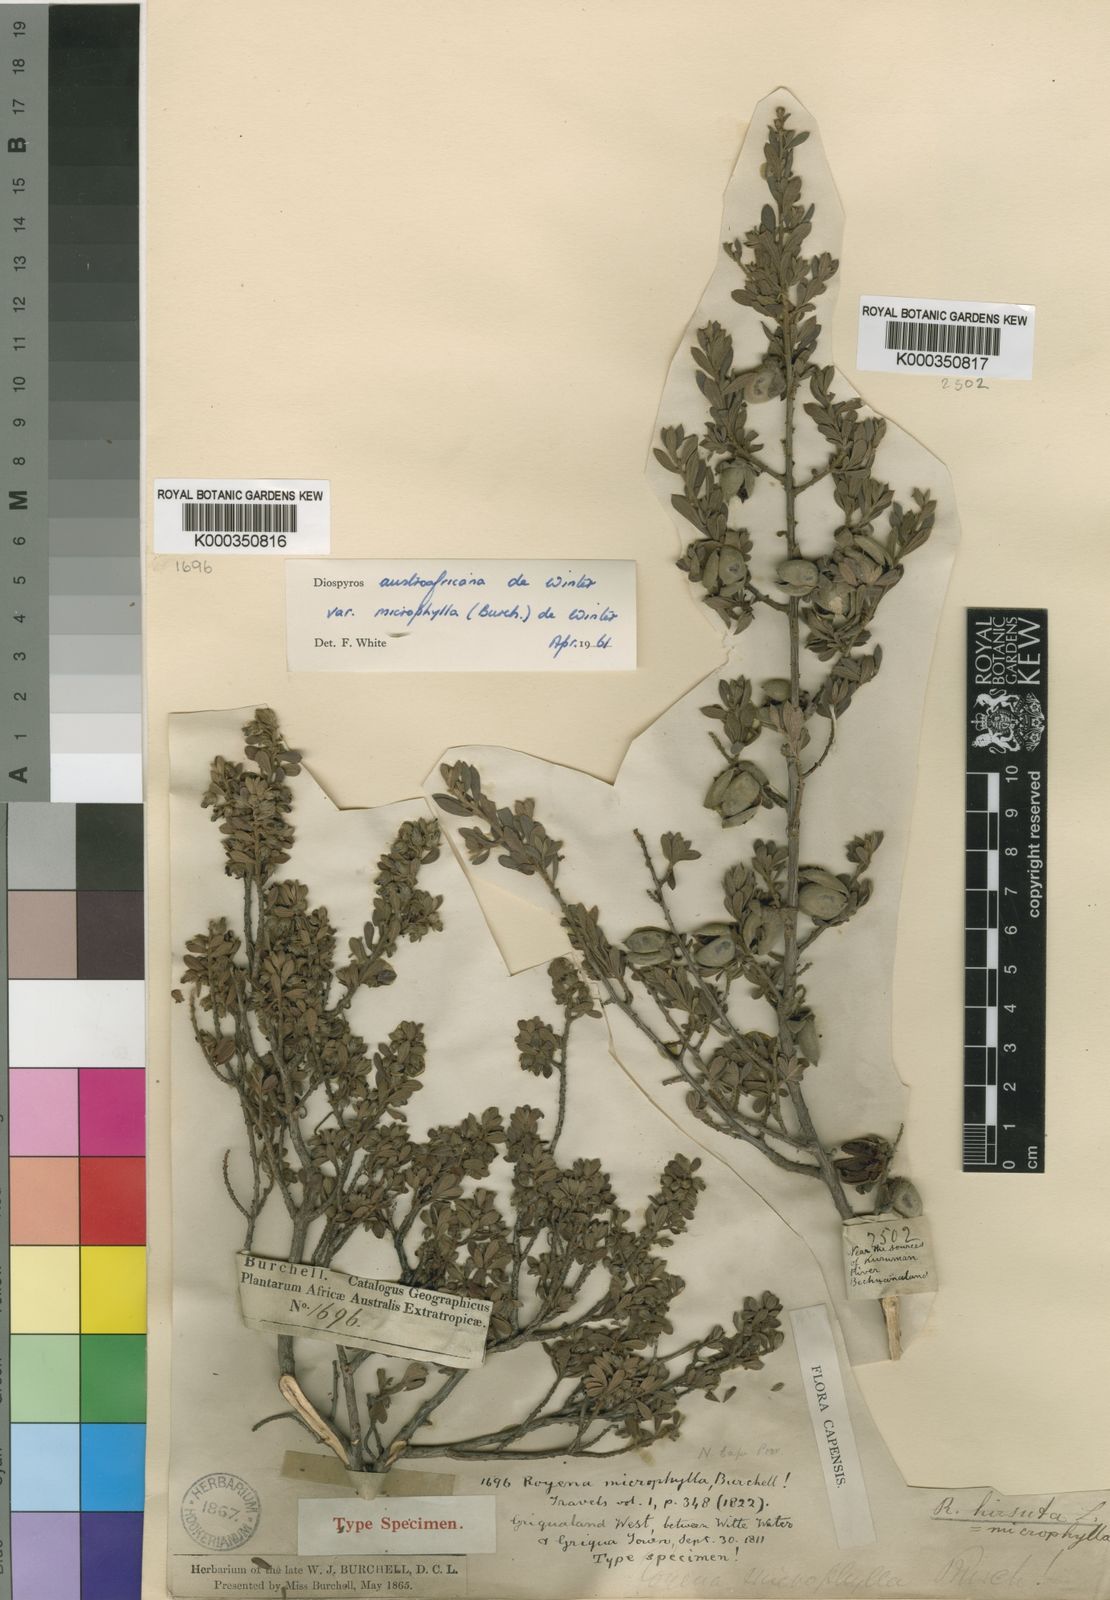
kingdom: Plantae
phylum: Tracheophyta
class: Magnoliopsida
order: Ericales
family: Ebenaceae
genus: Diospyros
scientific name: Diospyros pubescens
